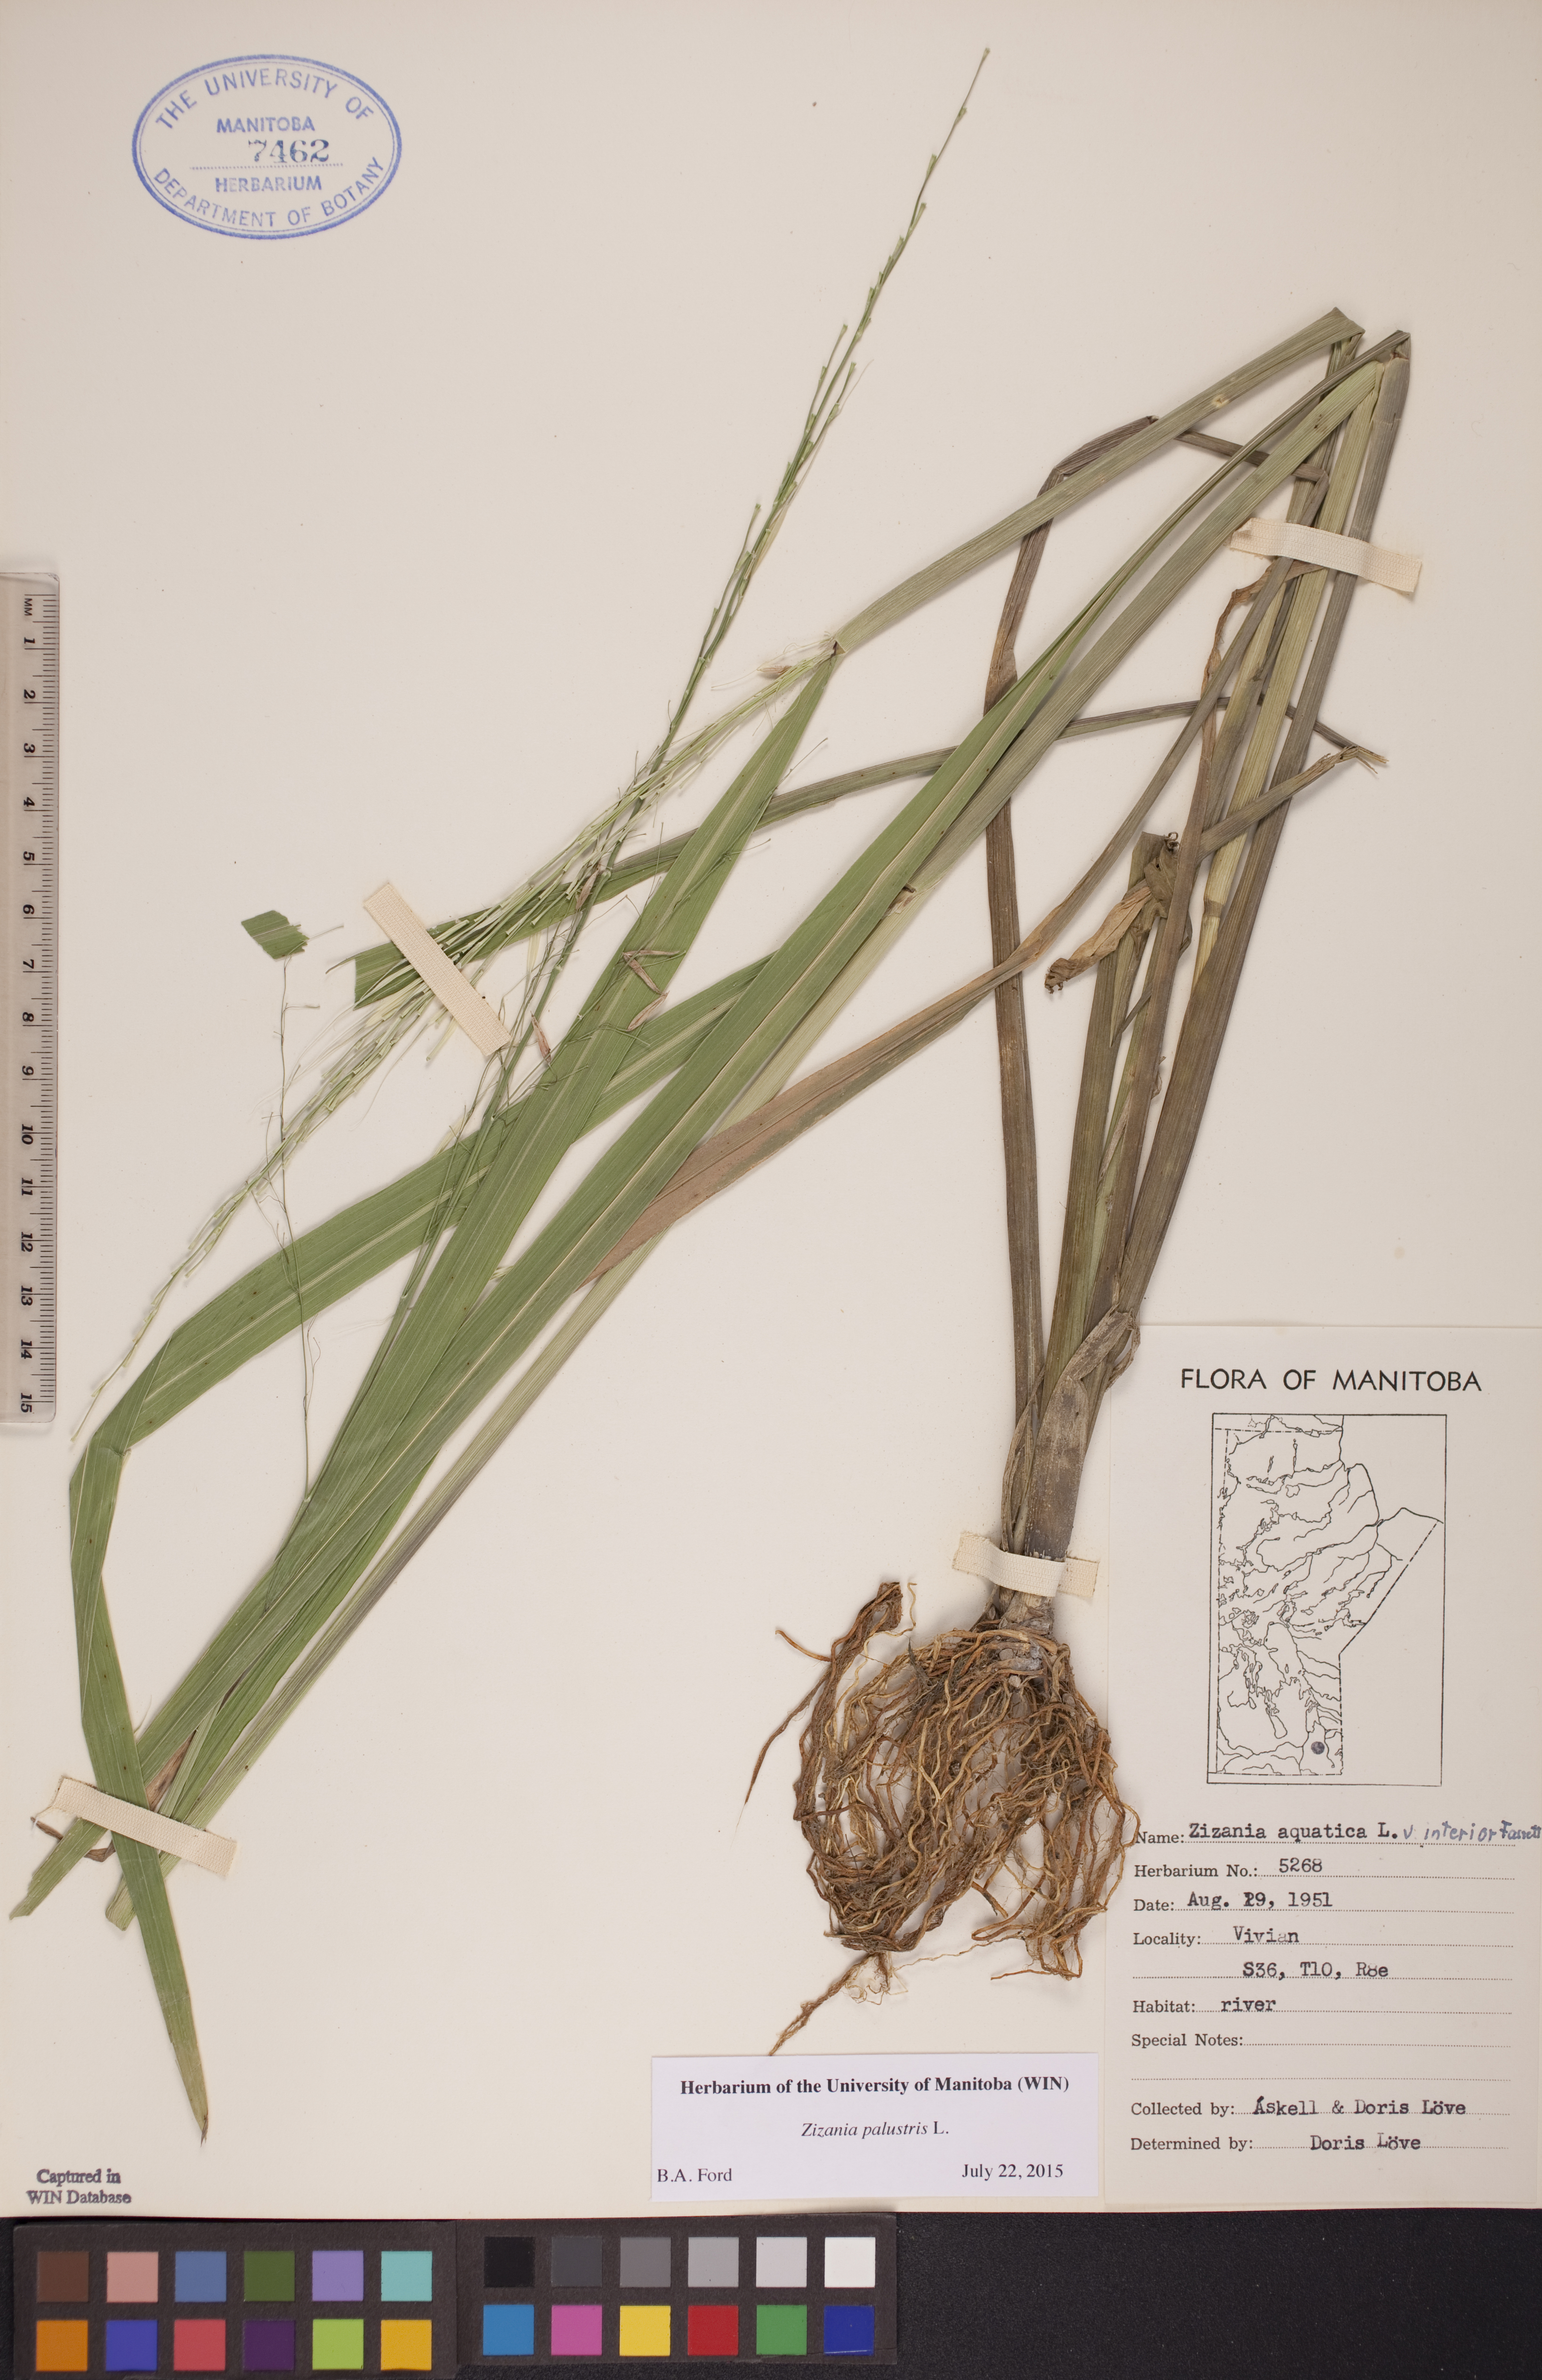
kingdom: Plantae
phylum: Tracheophyta
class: Liliopsida
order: Poales
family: Poaceae
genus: Zizania
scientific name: Zizania palustris
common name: Northern wild rice
